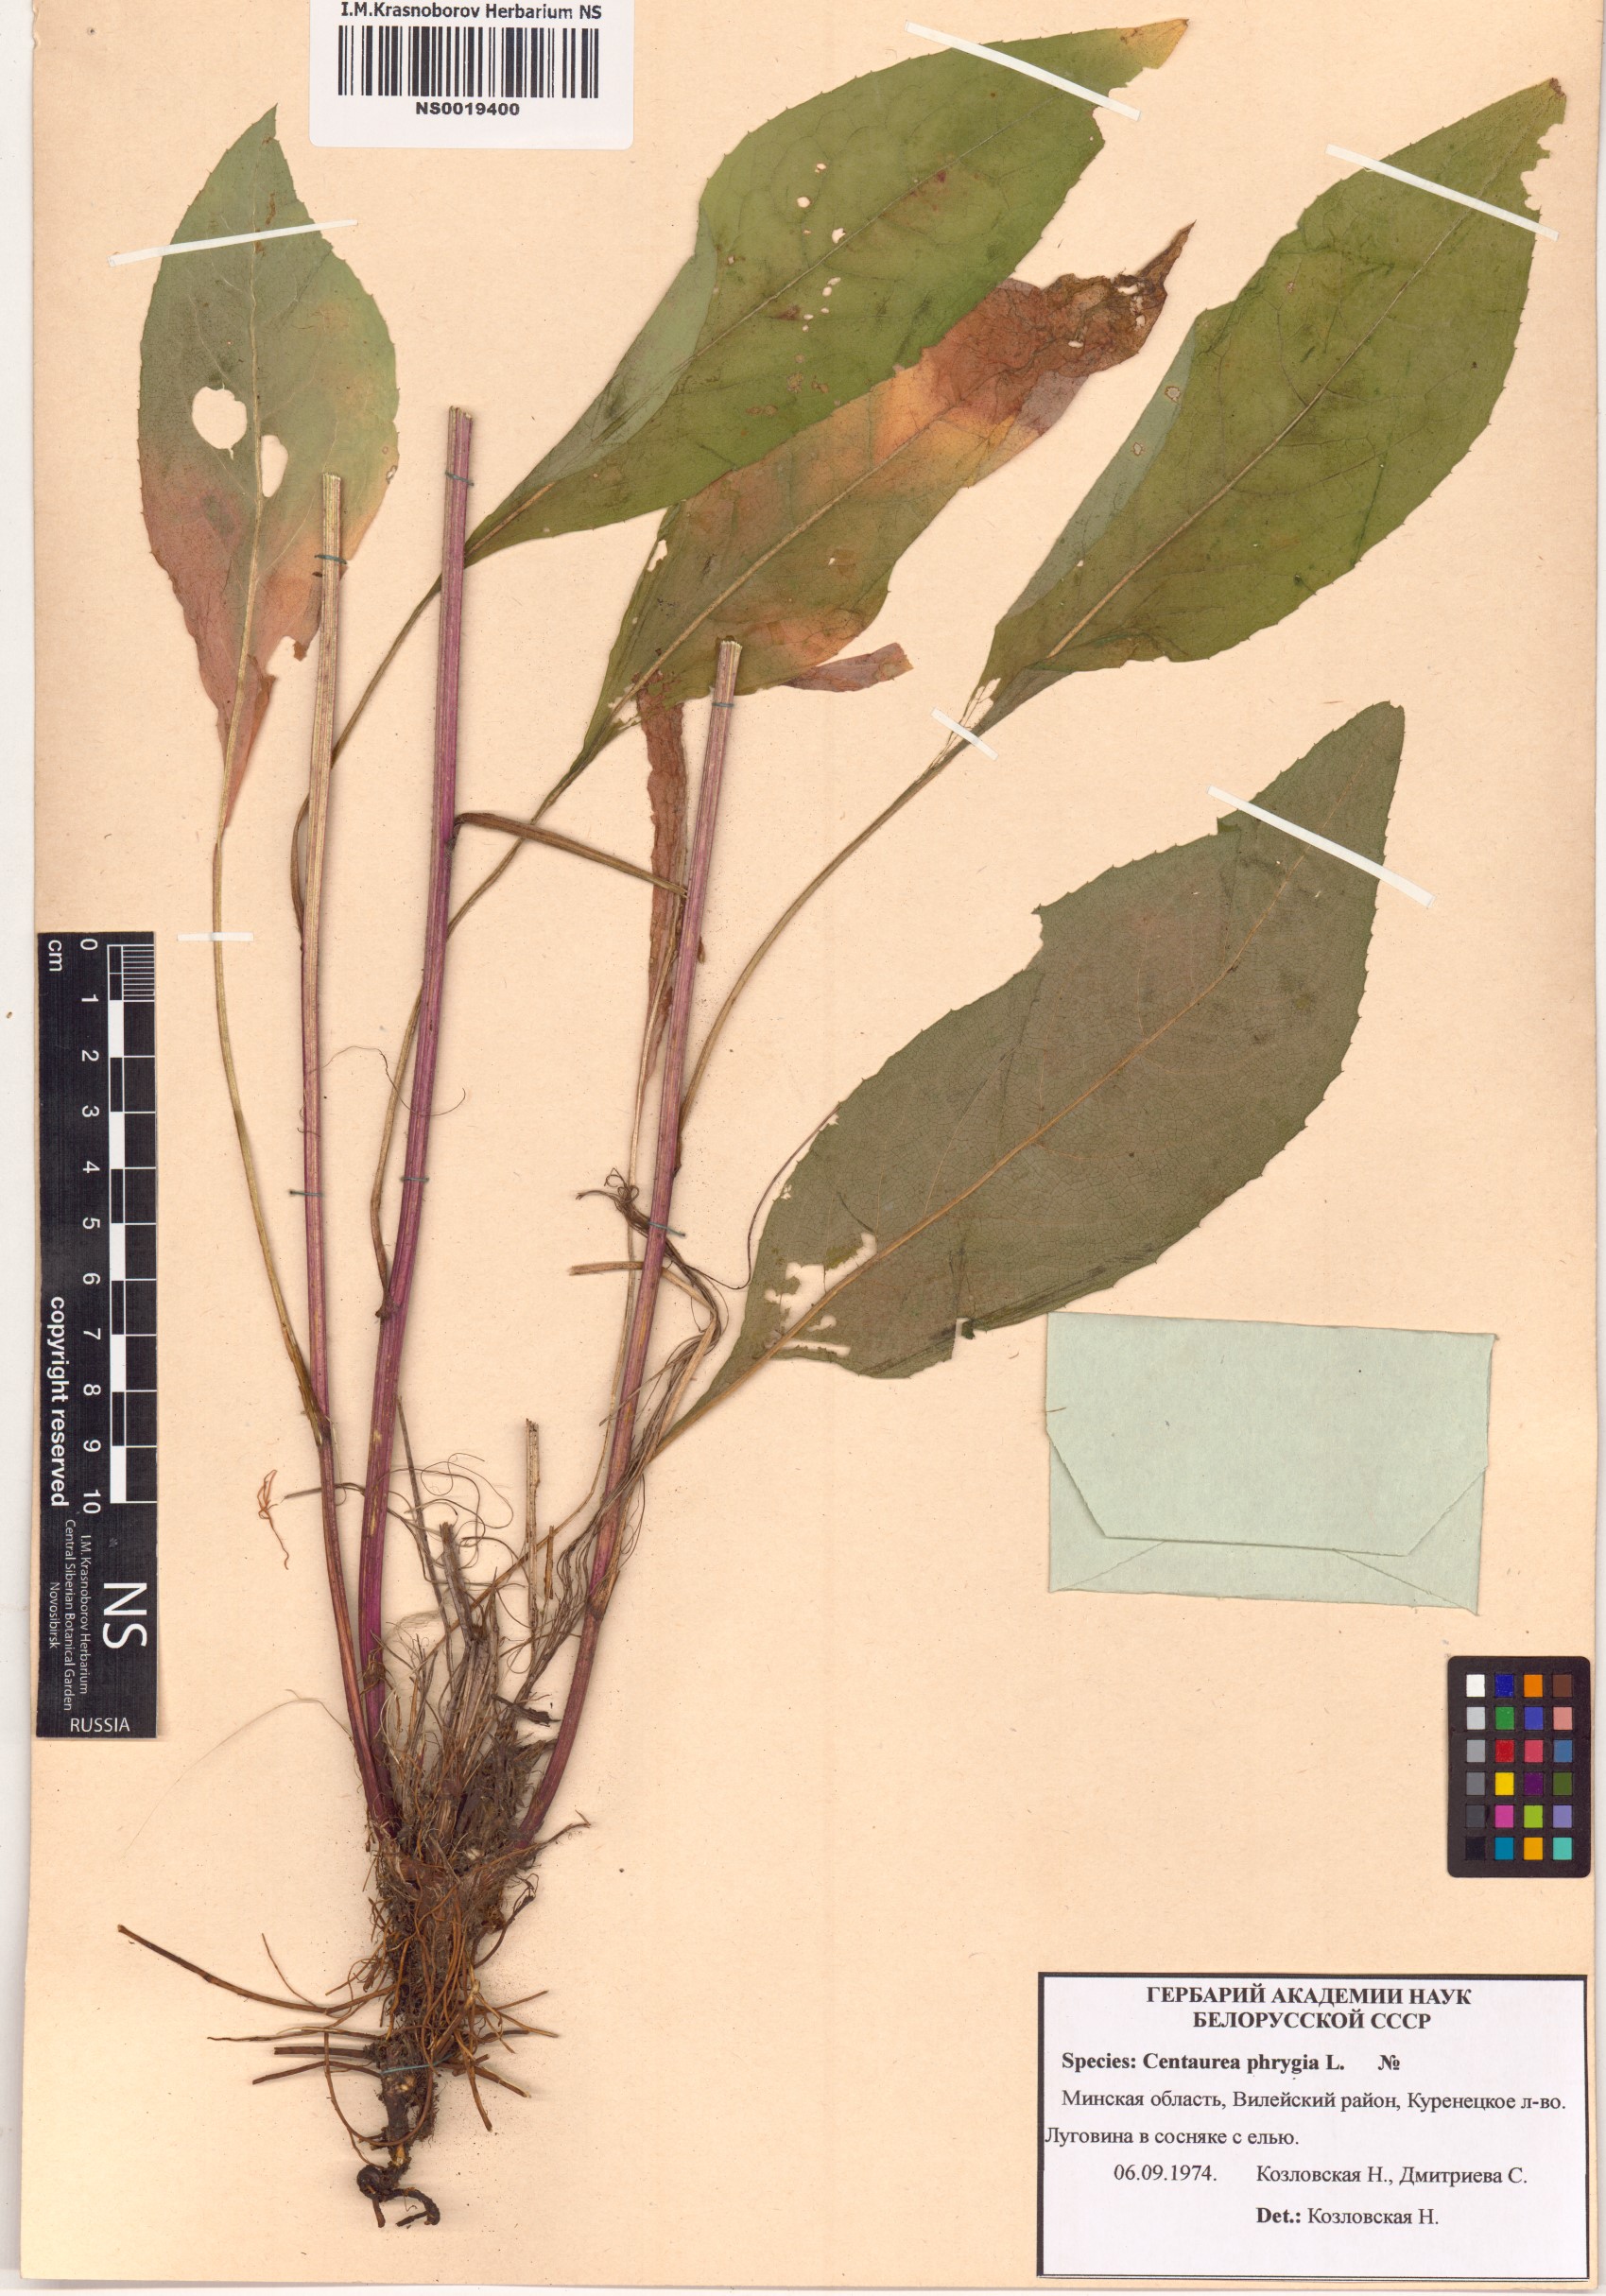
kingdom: Plantae
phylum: Tracheophyta
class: Magnoliopsida
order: Asterales
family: Asteraceae
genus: Centaurea
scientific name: Centaurea phrygia
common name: Wig knapweed
